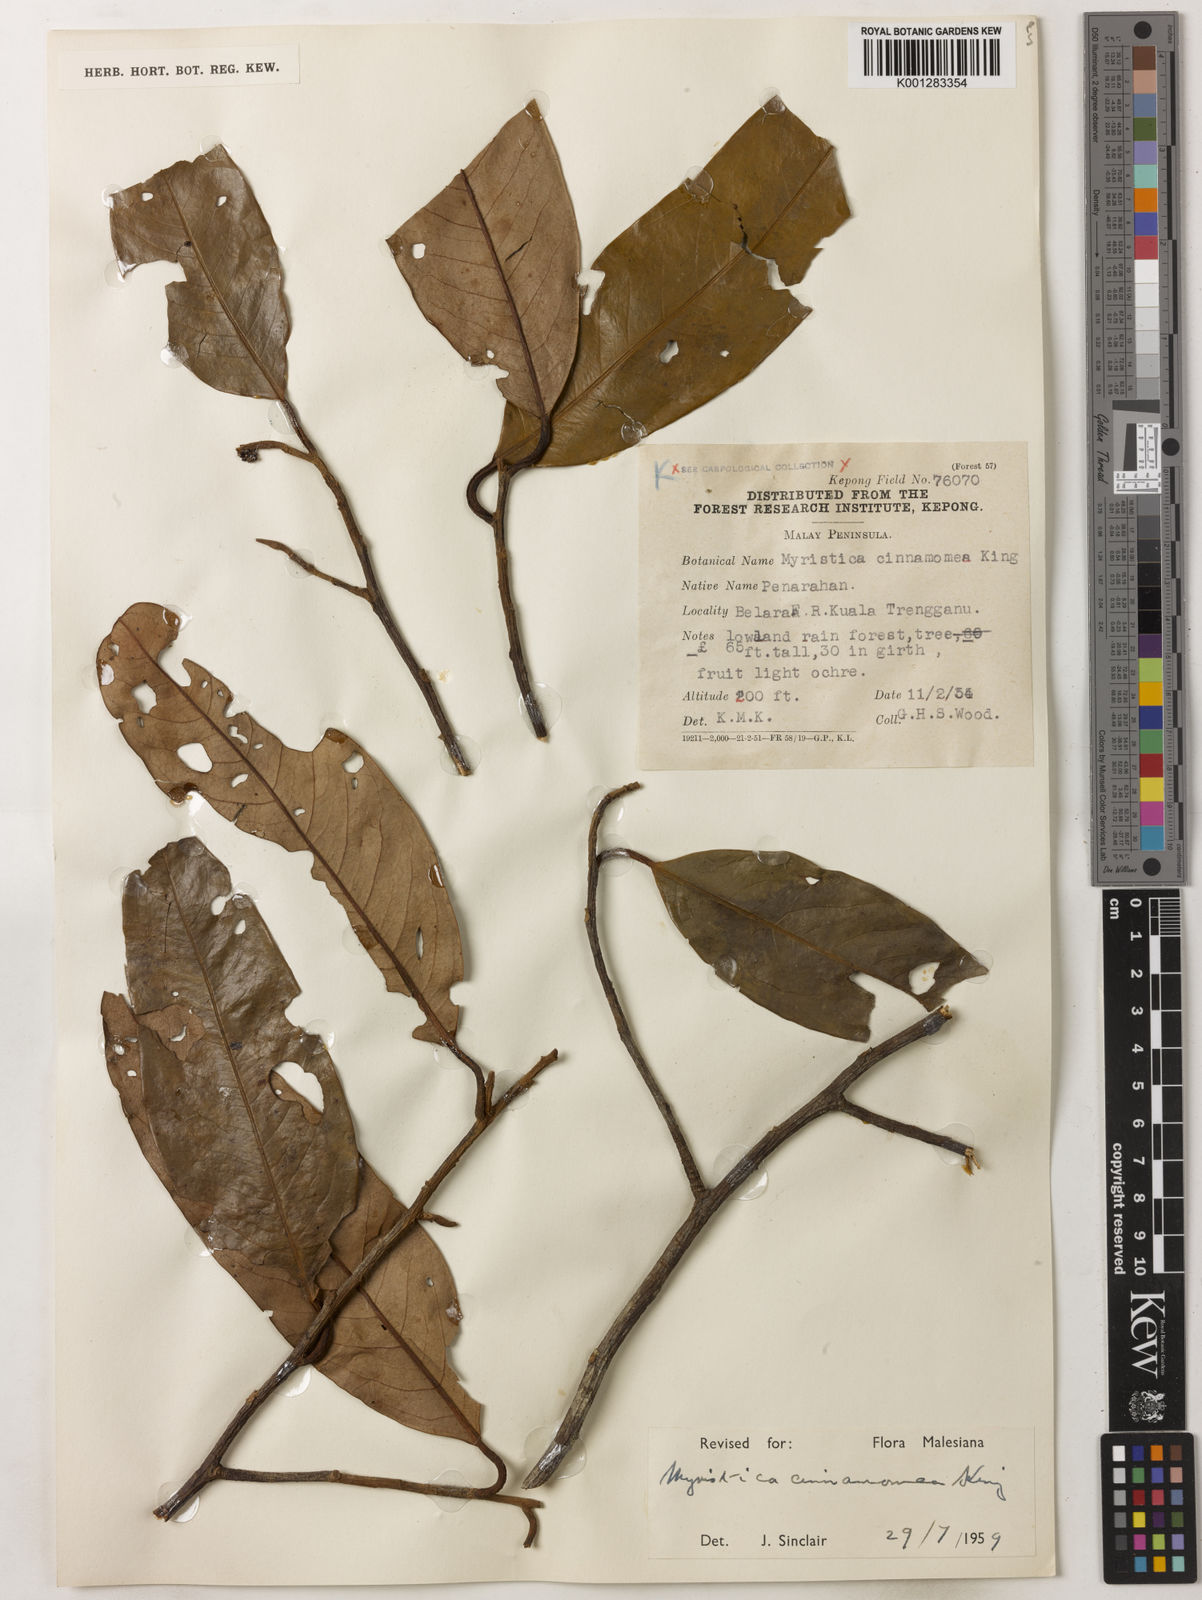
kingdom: Plantae
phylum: Tracheophyta
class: Magnoliopsida
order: Magnoliales
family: Myristicaceae
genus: Myristica
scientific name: Myristica cinnamomea
